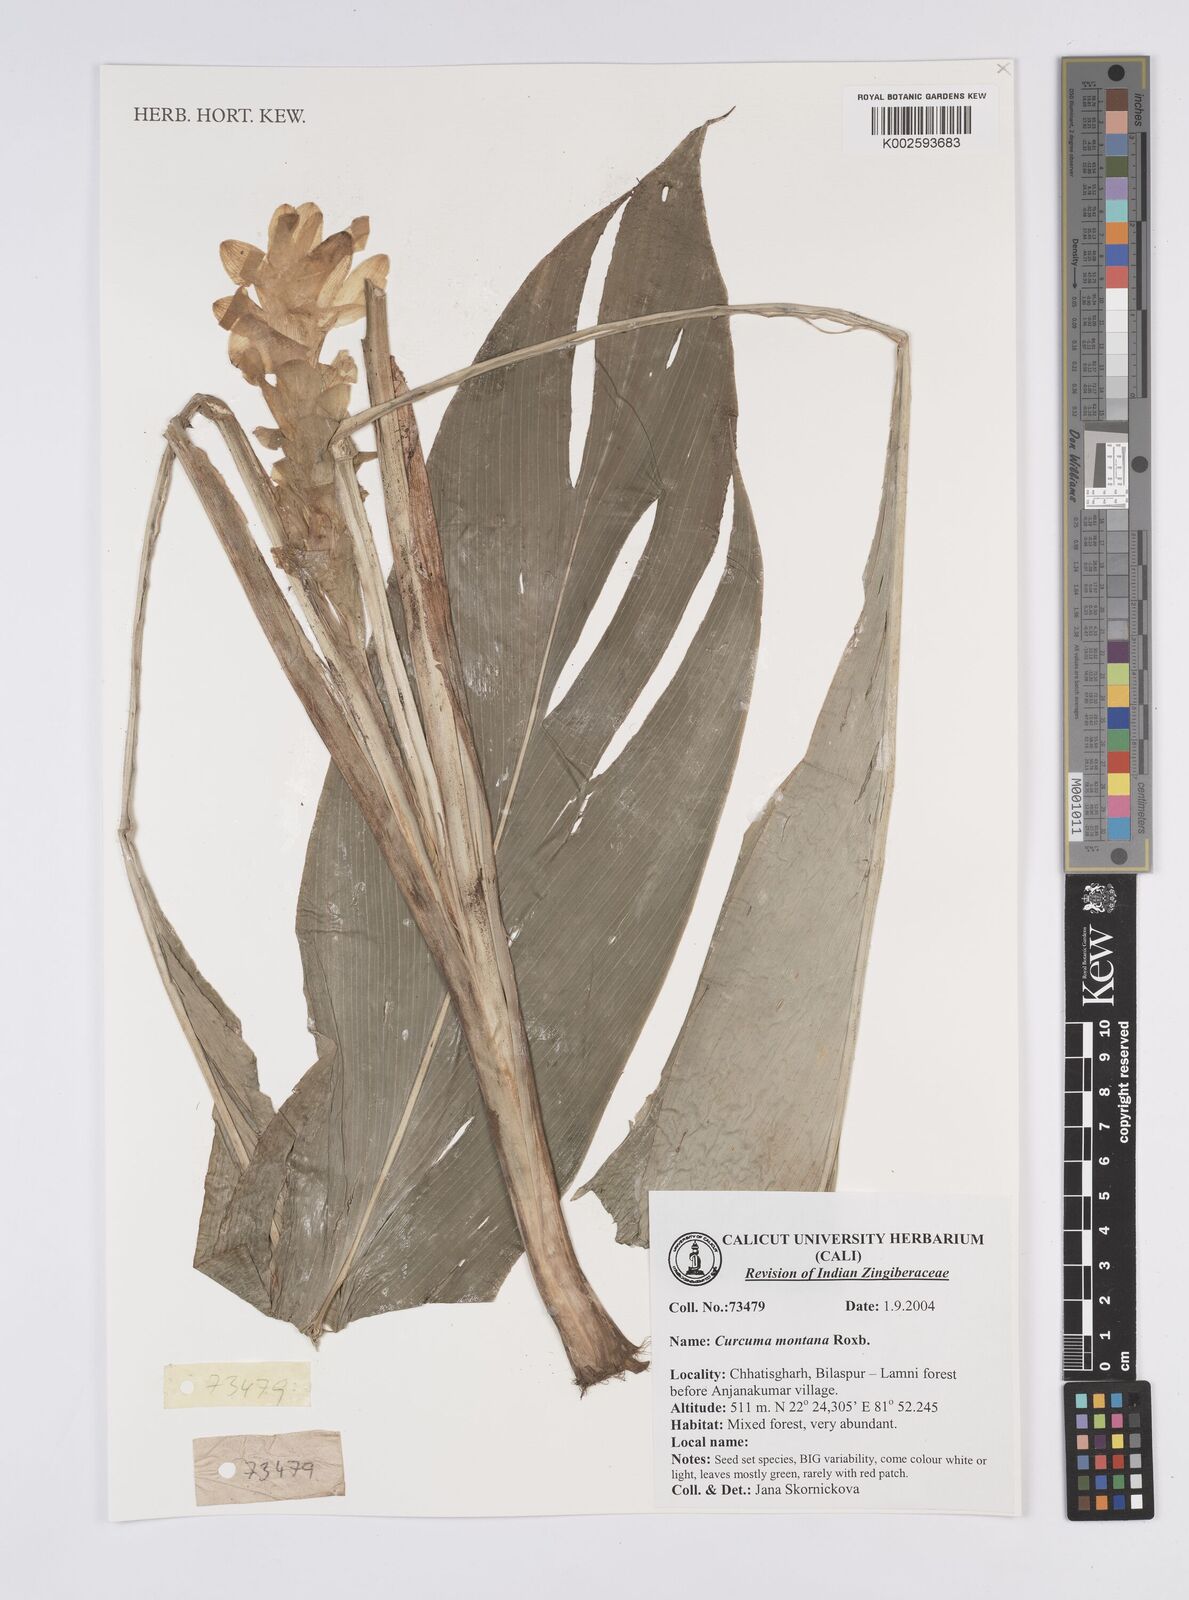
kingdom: Plantae
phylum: Tracheophyta
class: Liliopsida
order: Zingiberales
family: Zingiberaceae
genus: Curcuma
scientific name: Curcuma montana
